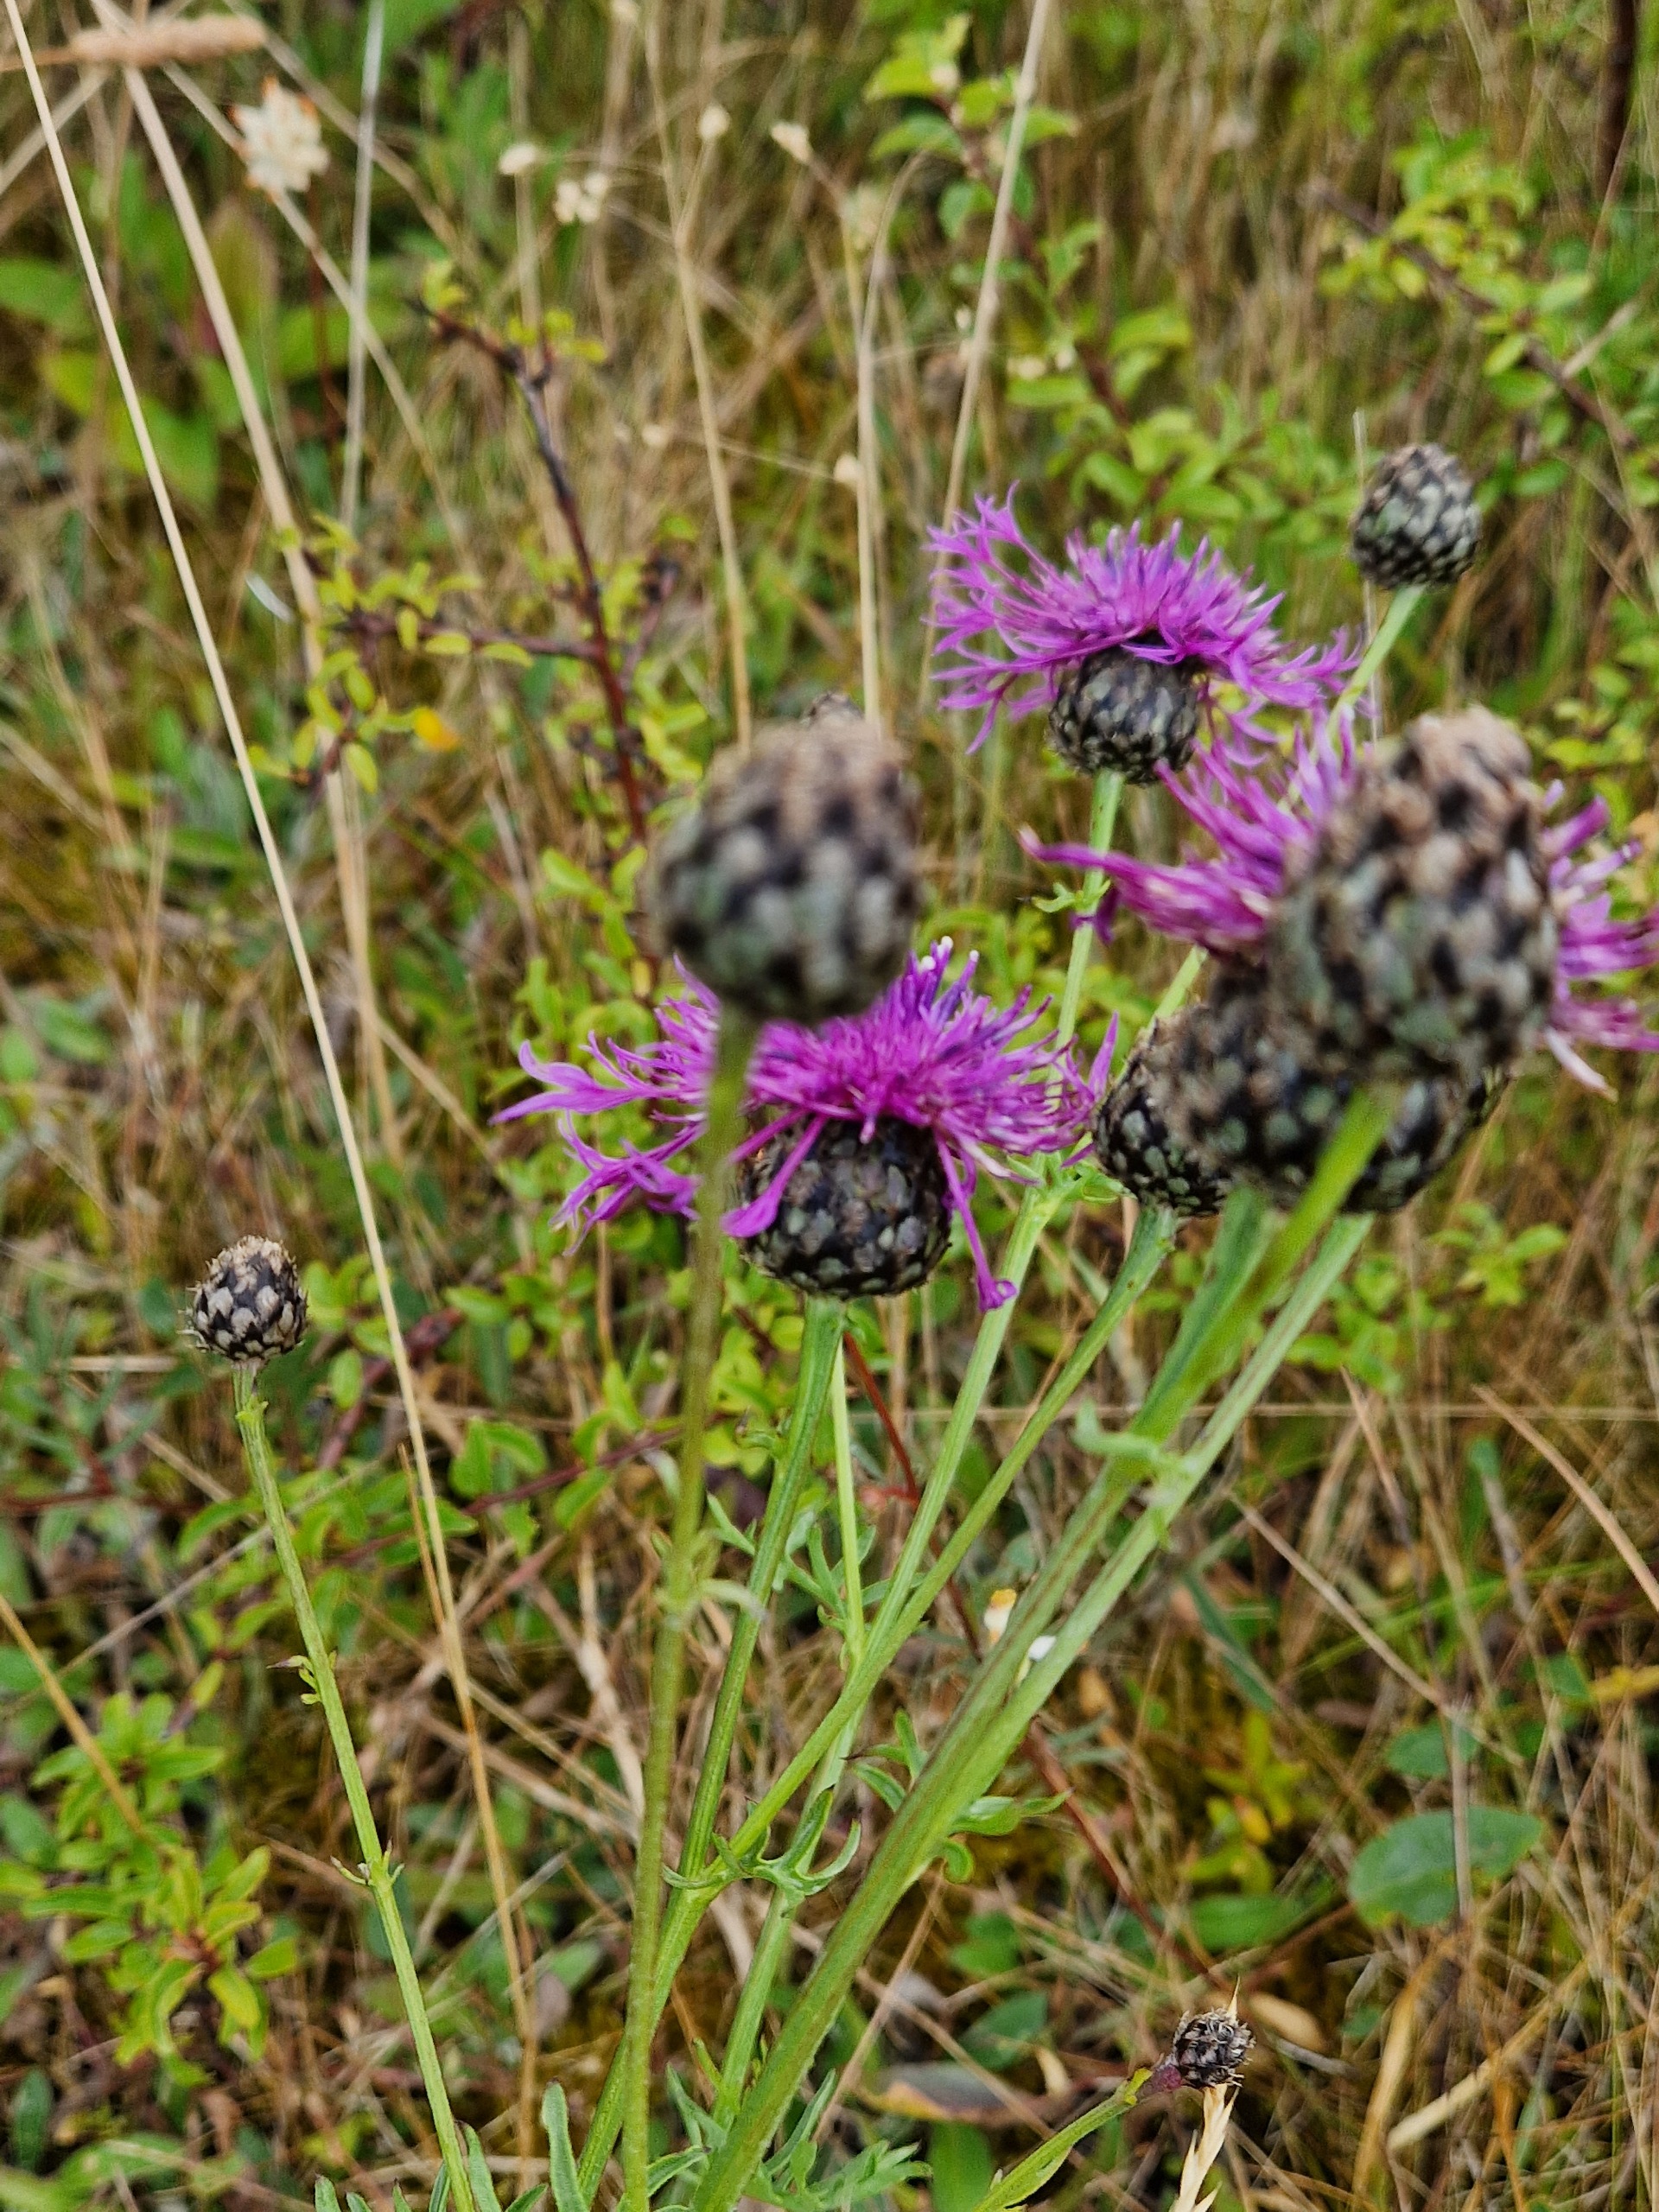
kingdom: Plantae
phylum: Tracheophyta
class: Magnoliopsida
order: Asterales
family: Asteraceae
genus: Centaurea
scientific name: Centaurea scabiosa
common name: Stor knopurt
